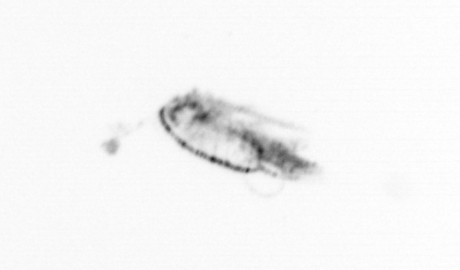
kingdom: Animalia
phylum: Arthropoda
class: Copepoda
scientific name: Copepoda
